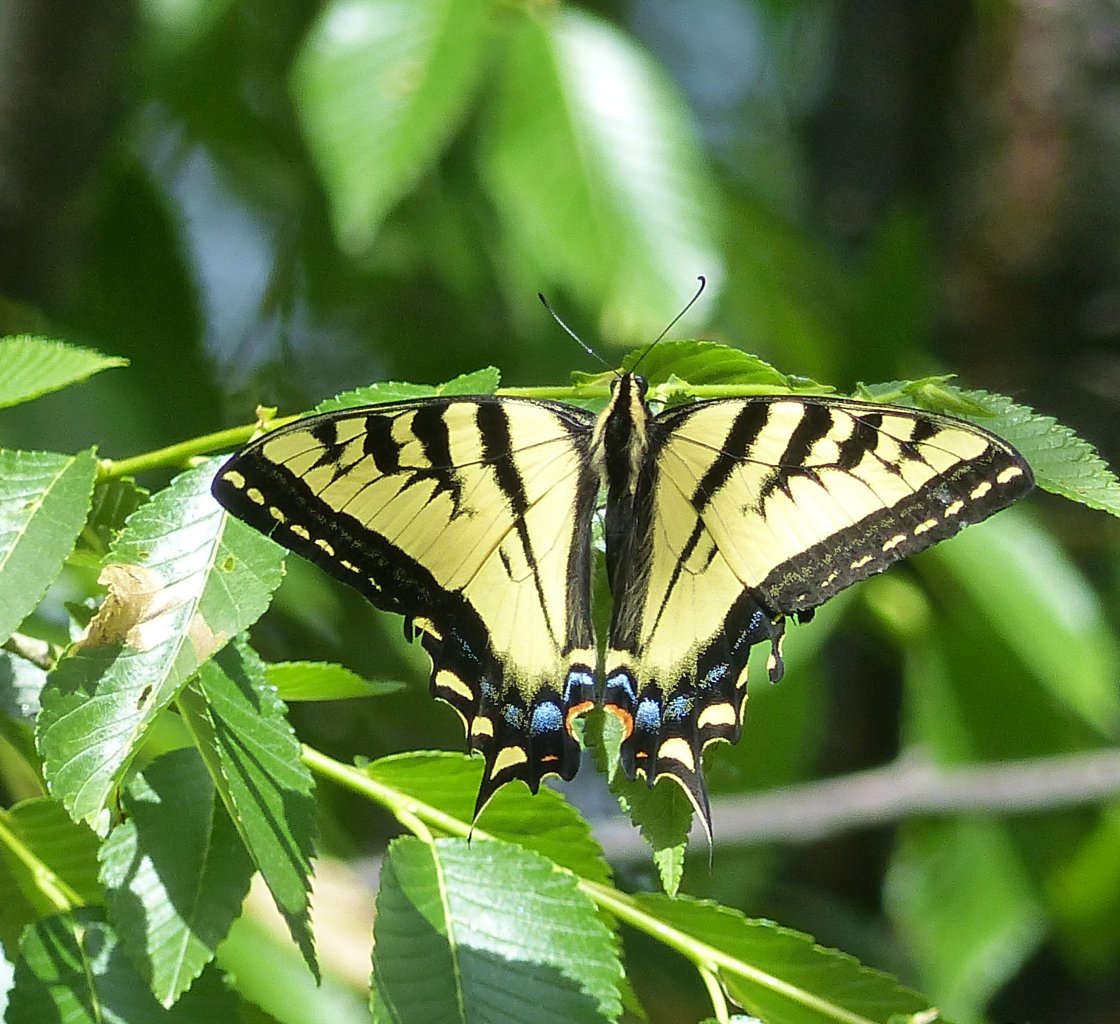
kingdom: Animalia
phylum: Arthropoda
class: Insecta
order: Lepidoptera
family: Papilionidae
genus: Pterourus
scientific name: Pterourus rutulus
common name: Western Tiger Swallowtail
